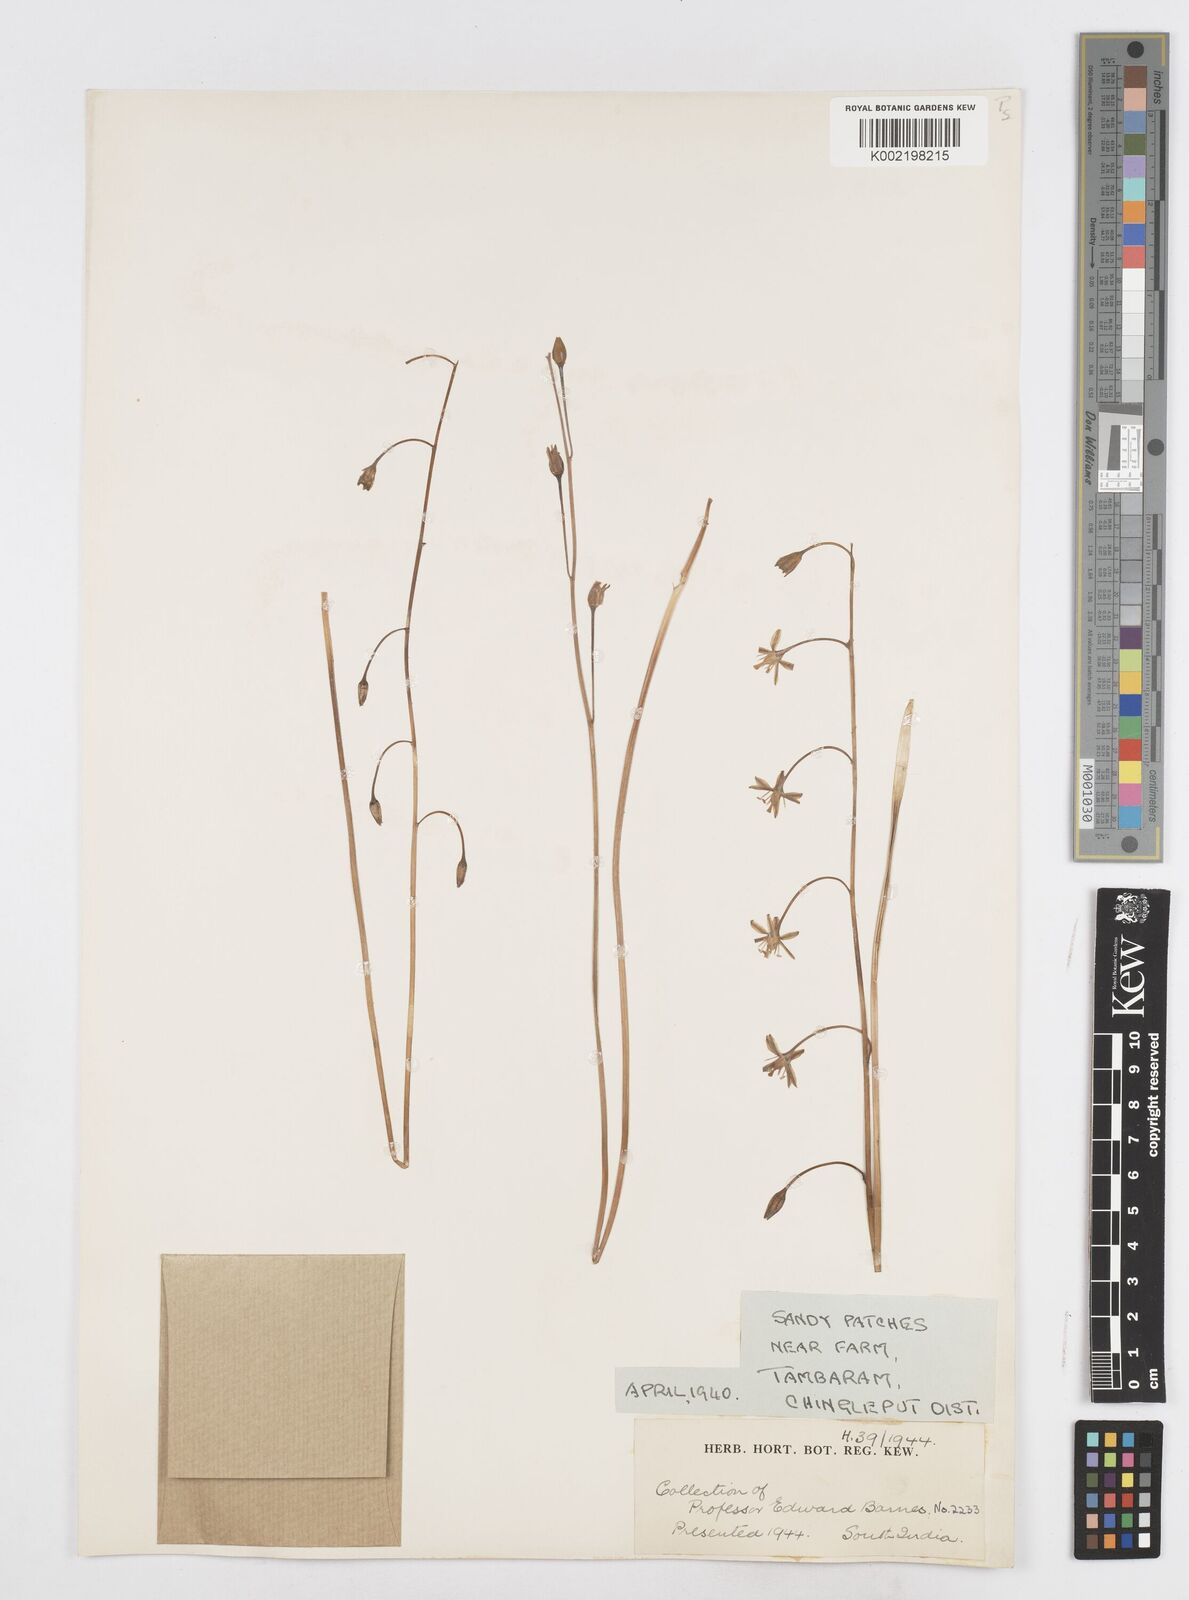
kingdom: Plantae
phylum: Tracheophyta
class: Liliopsida
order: Asparagales
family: Asparagaceae
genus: Drimia
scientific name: Drimia indica
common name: Indian-squill
